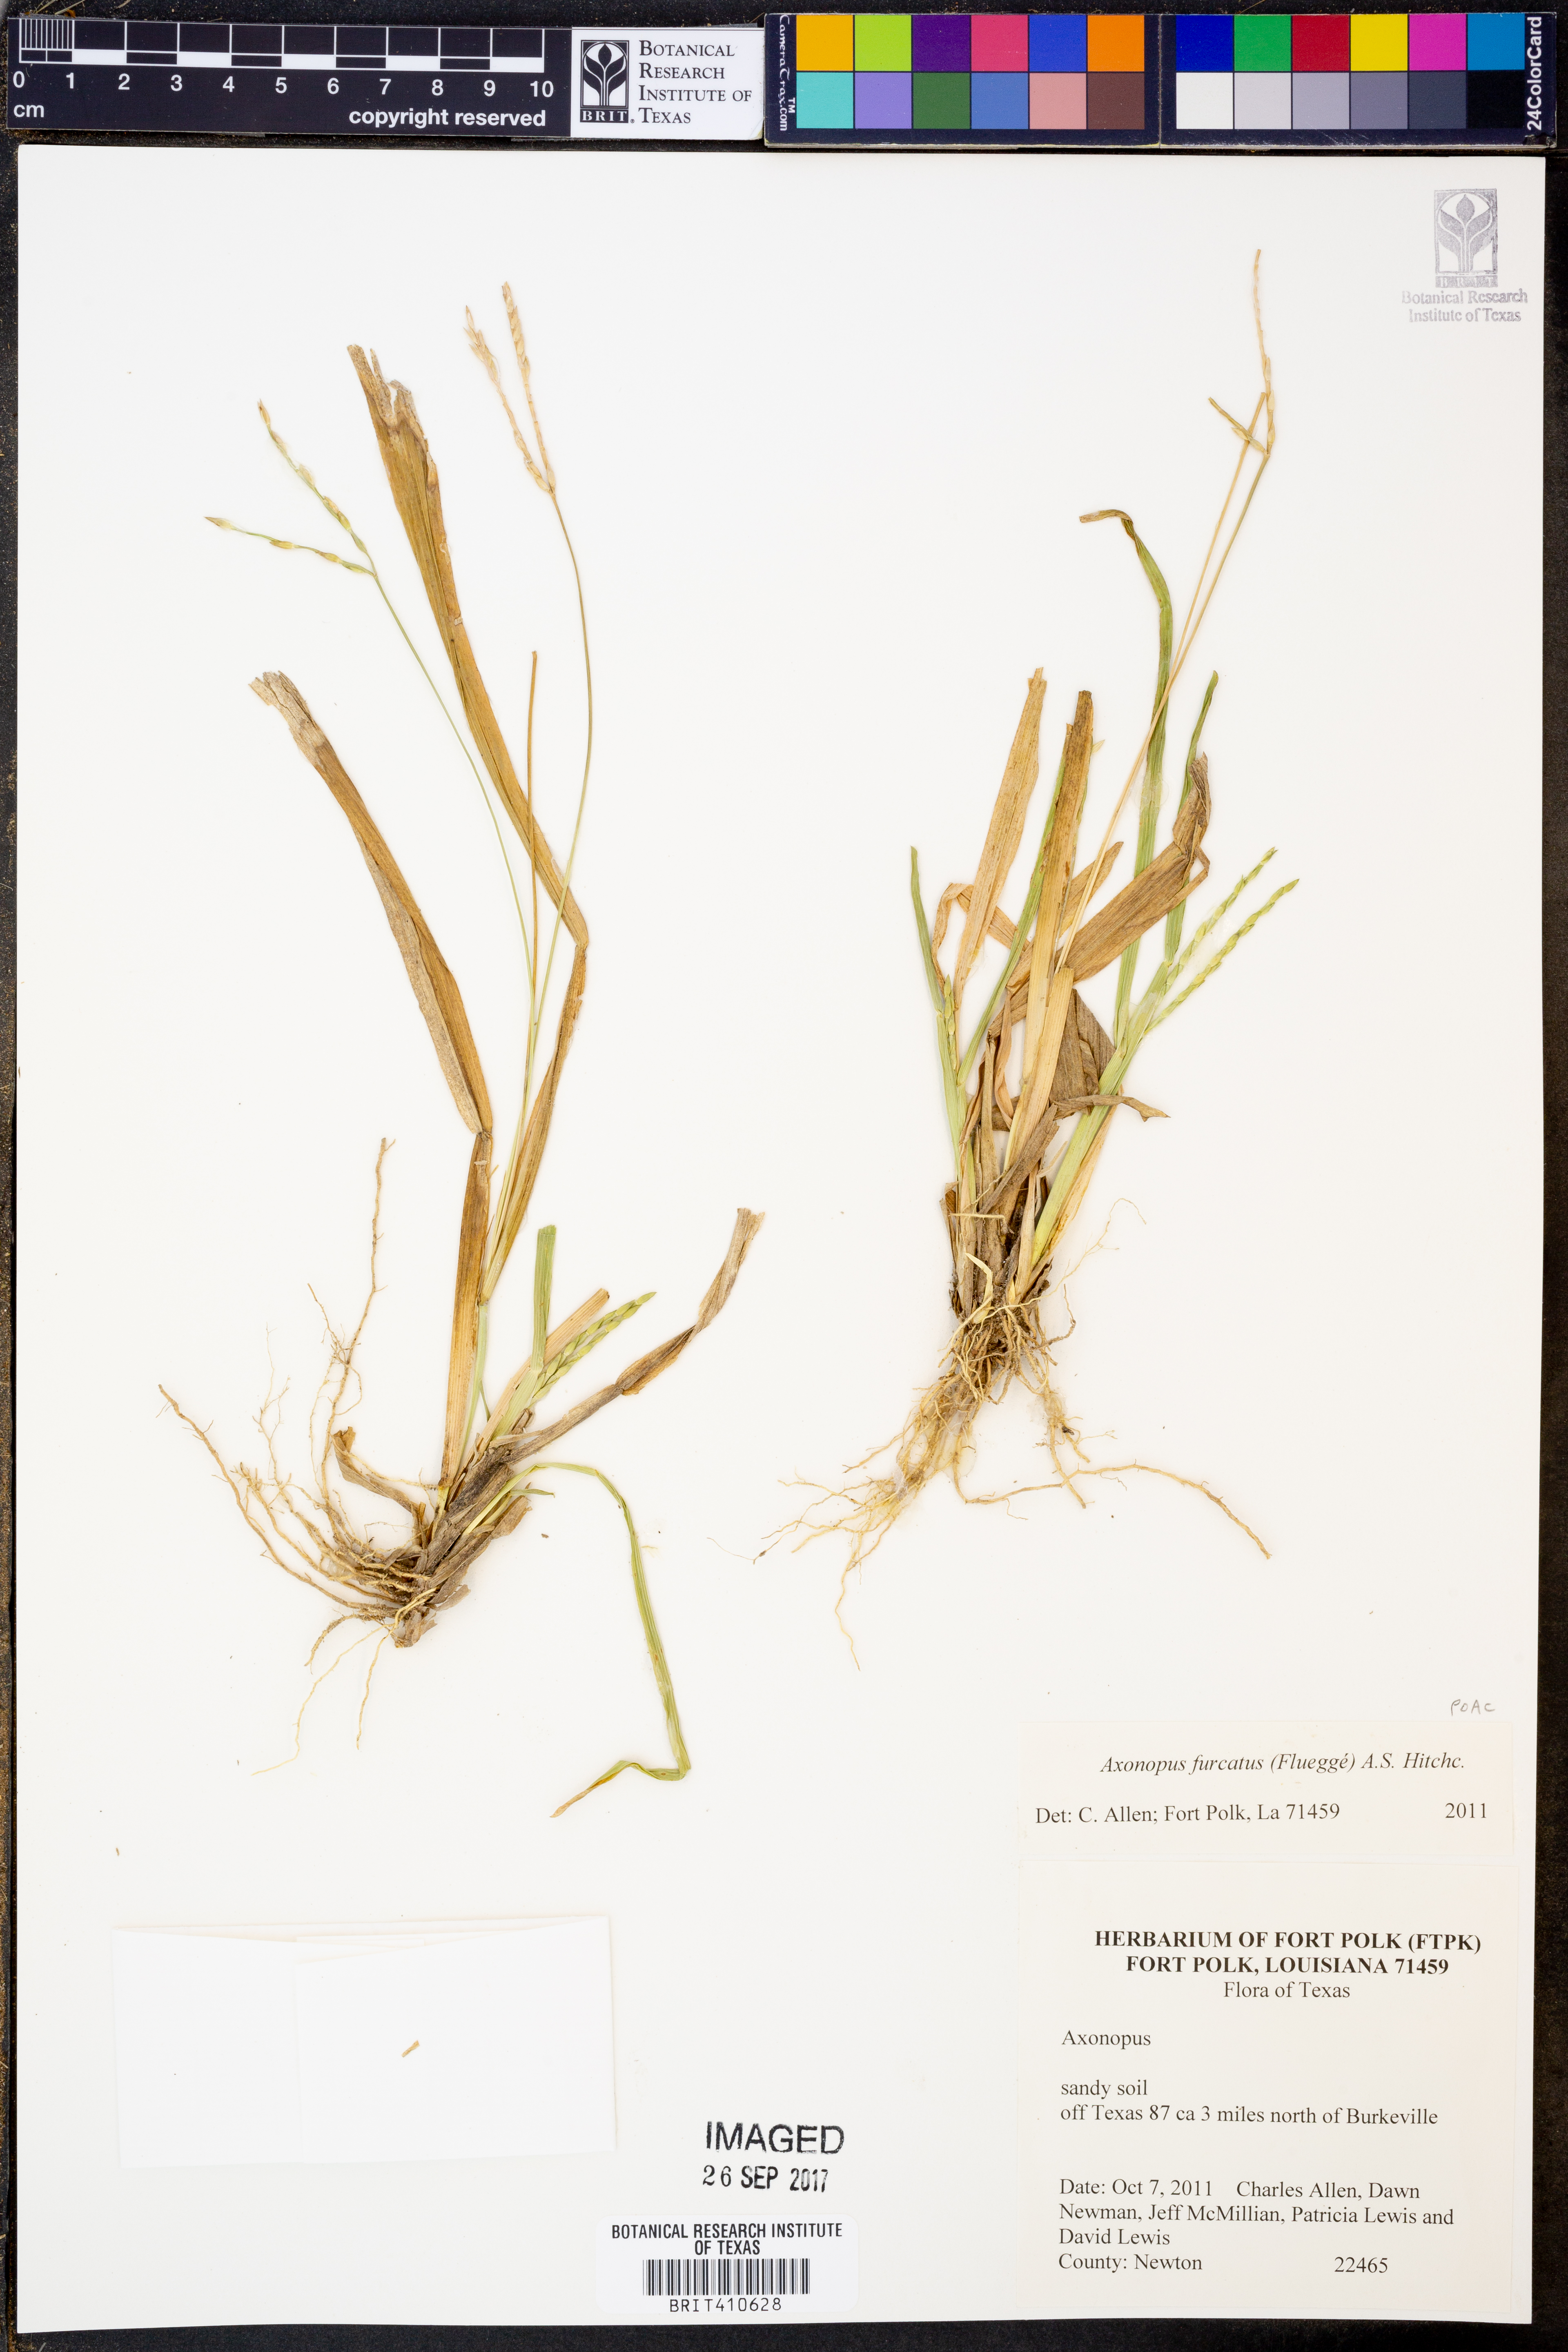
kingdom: Plantae
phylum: Tracheophyta
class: Liliopsida
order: Poales
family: Poaceae
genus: Axonopus
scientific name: Axonopus furcatus
